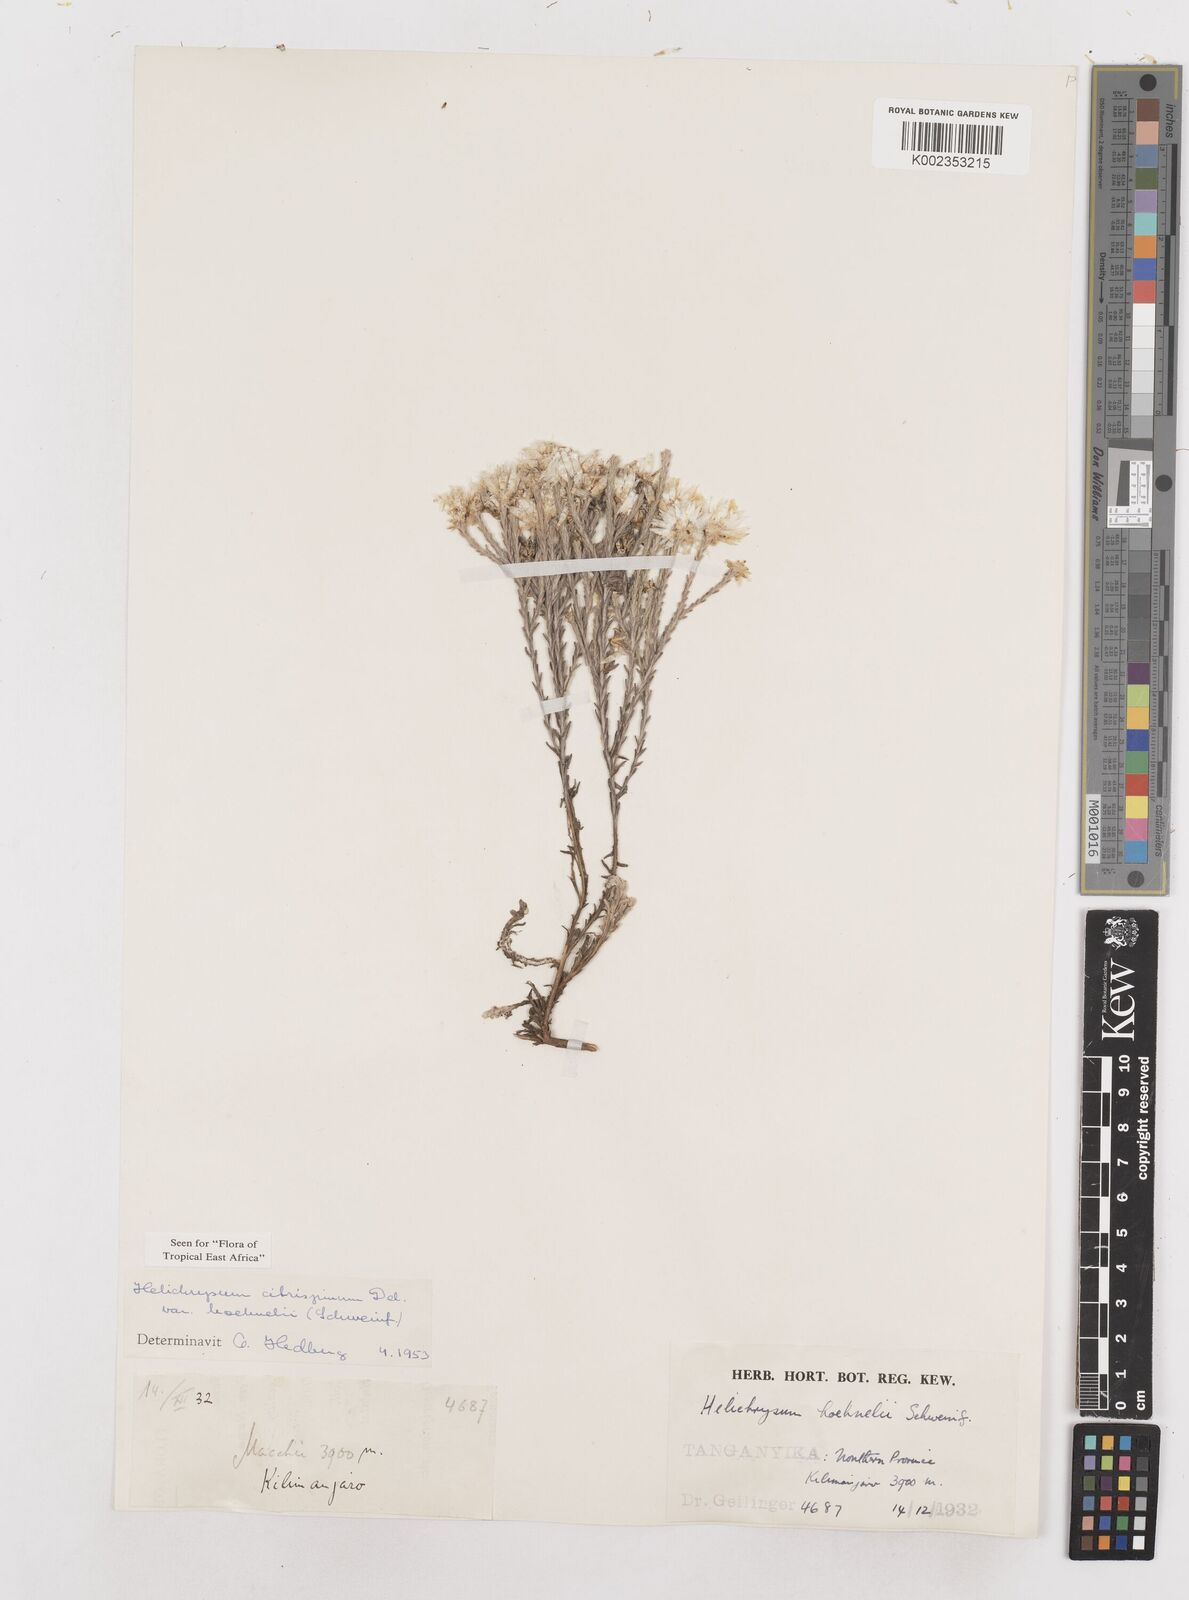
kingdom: Plantae
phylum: Tracheophyta
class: Magnoliopsida
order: Asterales
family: Asteraceae
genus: Helichrysum
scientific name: Helichrysum citrispinum
